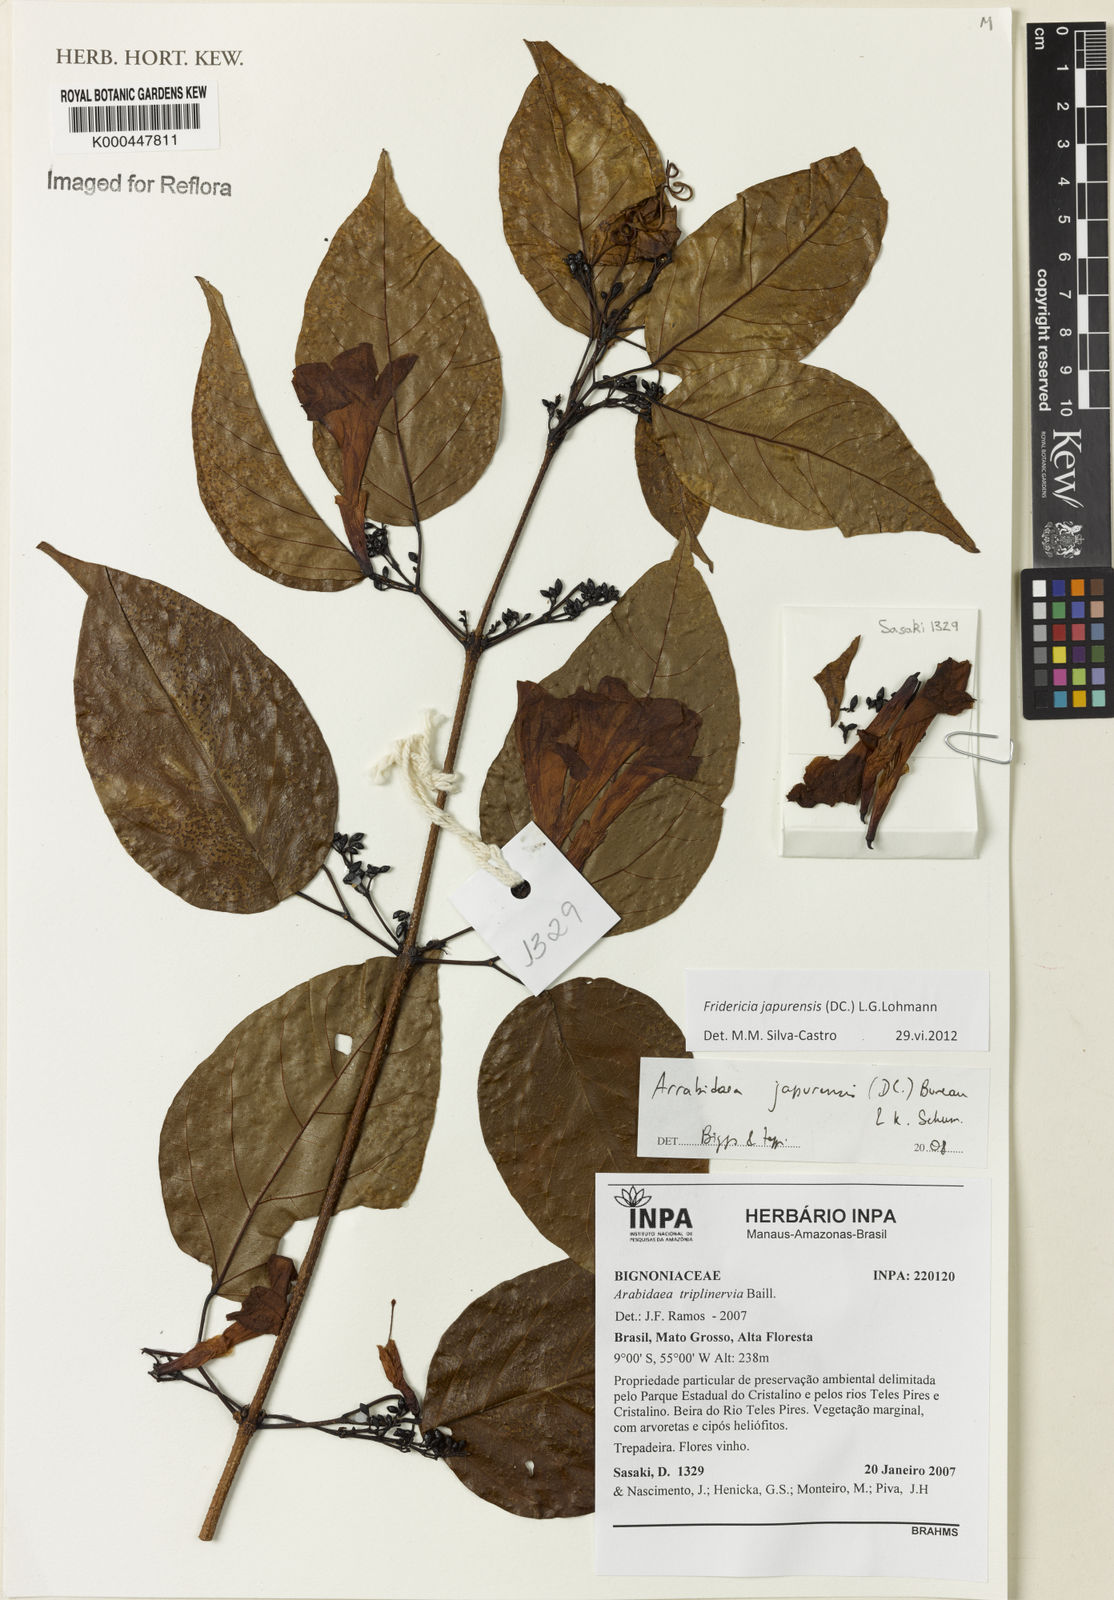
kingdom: Plantae
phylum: Tracheophyta
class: Magnoliopsida
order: Lamiales
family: Bignoniaceae
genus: Fridericia
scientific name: Fridericia japurensis
